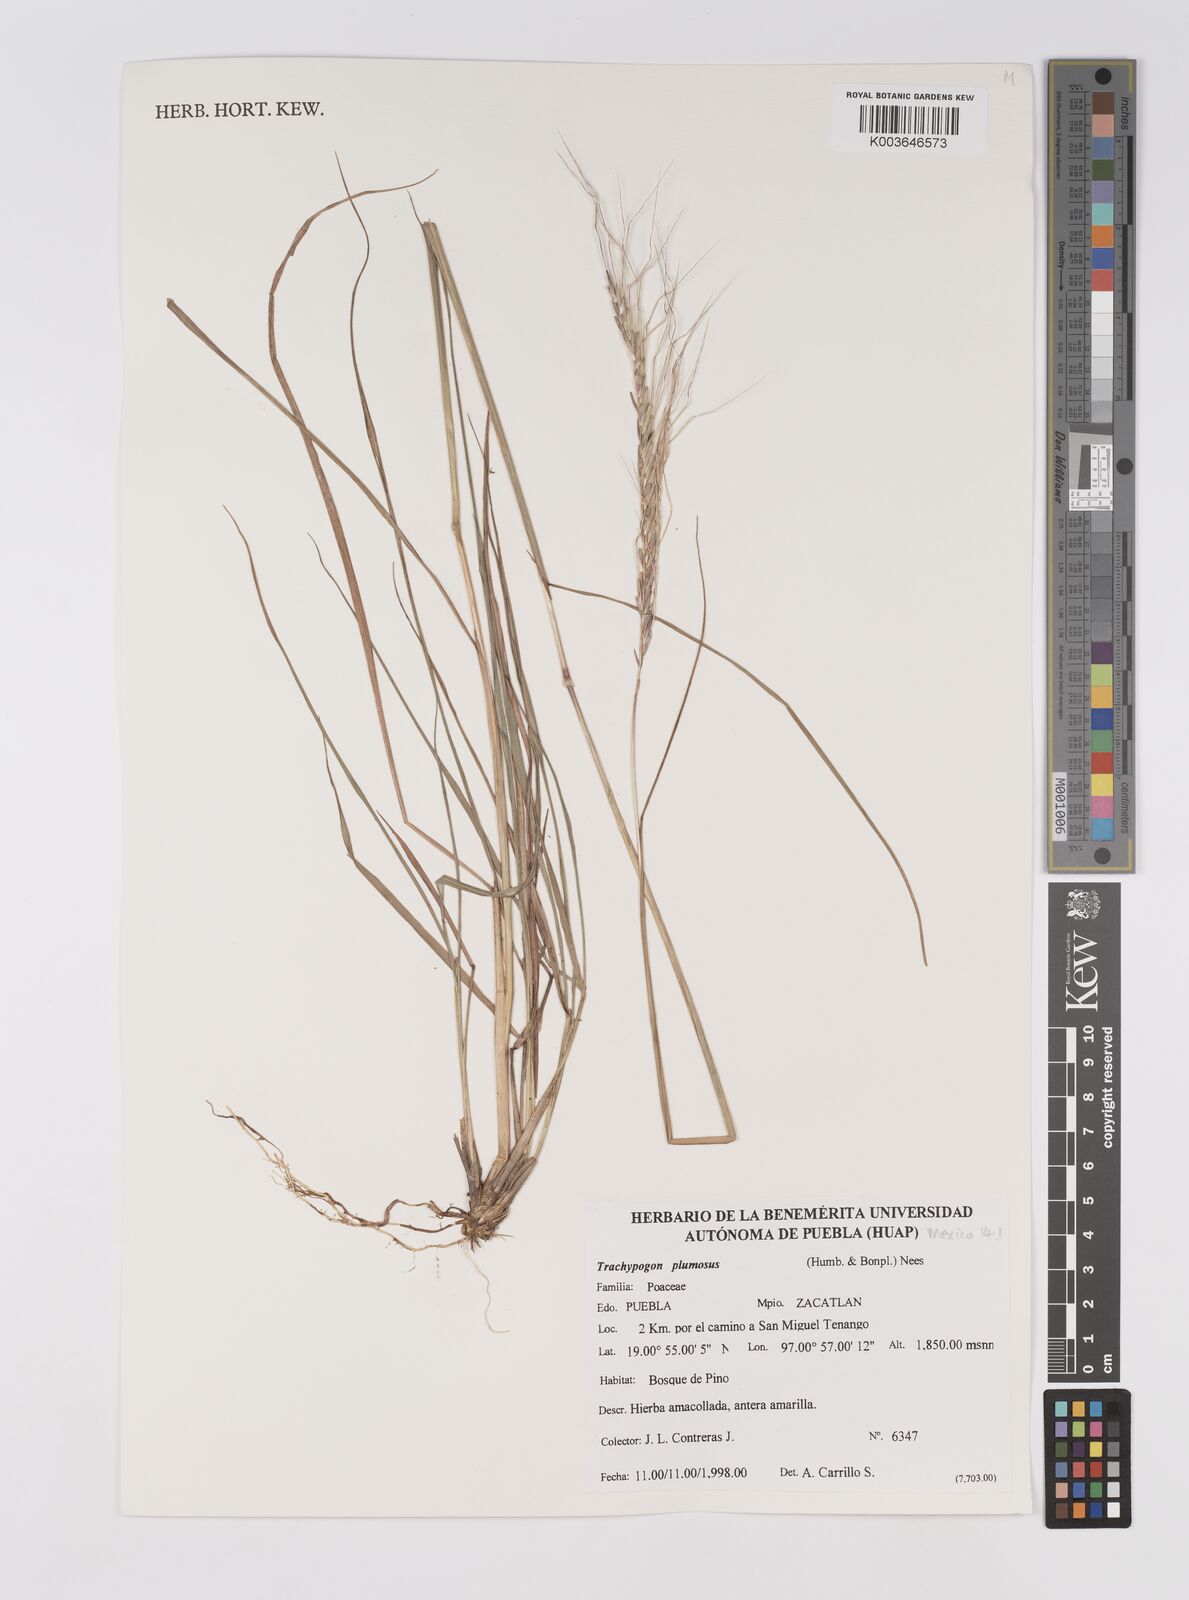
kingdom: Plantae
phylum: Tracheophyta
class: Liliopsida
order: Poales
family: Poaceae
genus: Trachypogon
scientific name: Trachypogon spicatus
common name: Crinkle-awn
